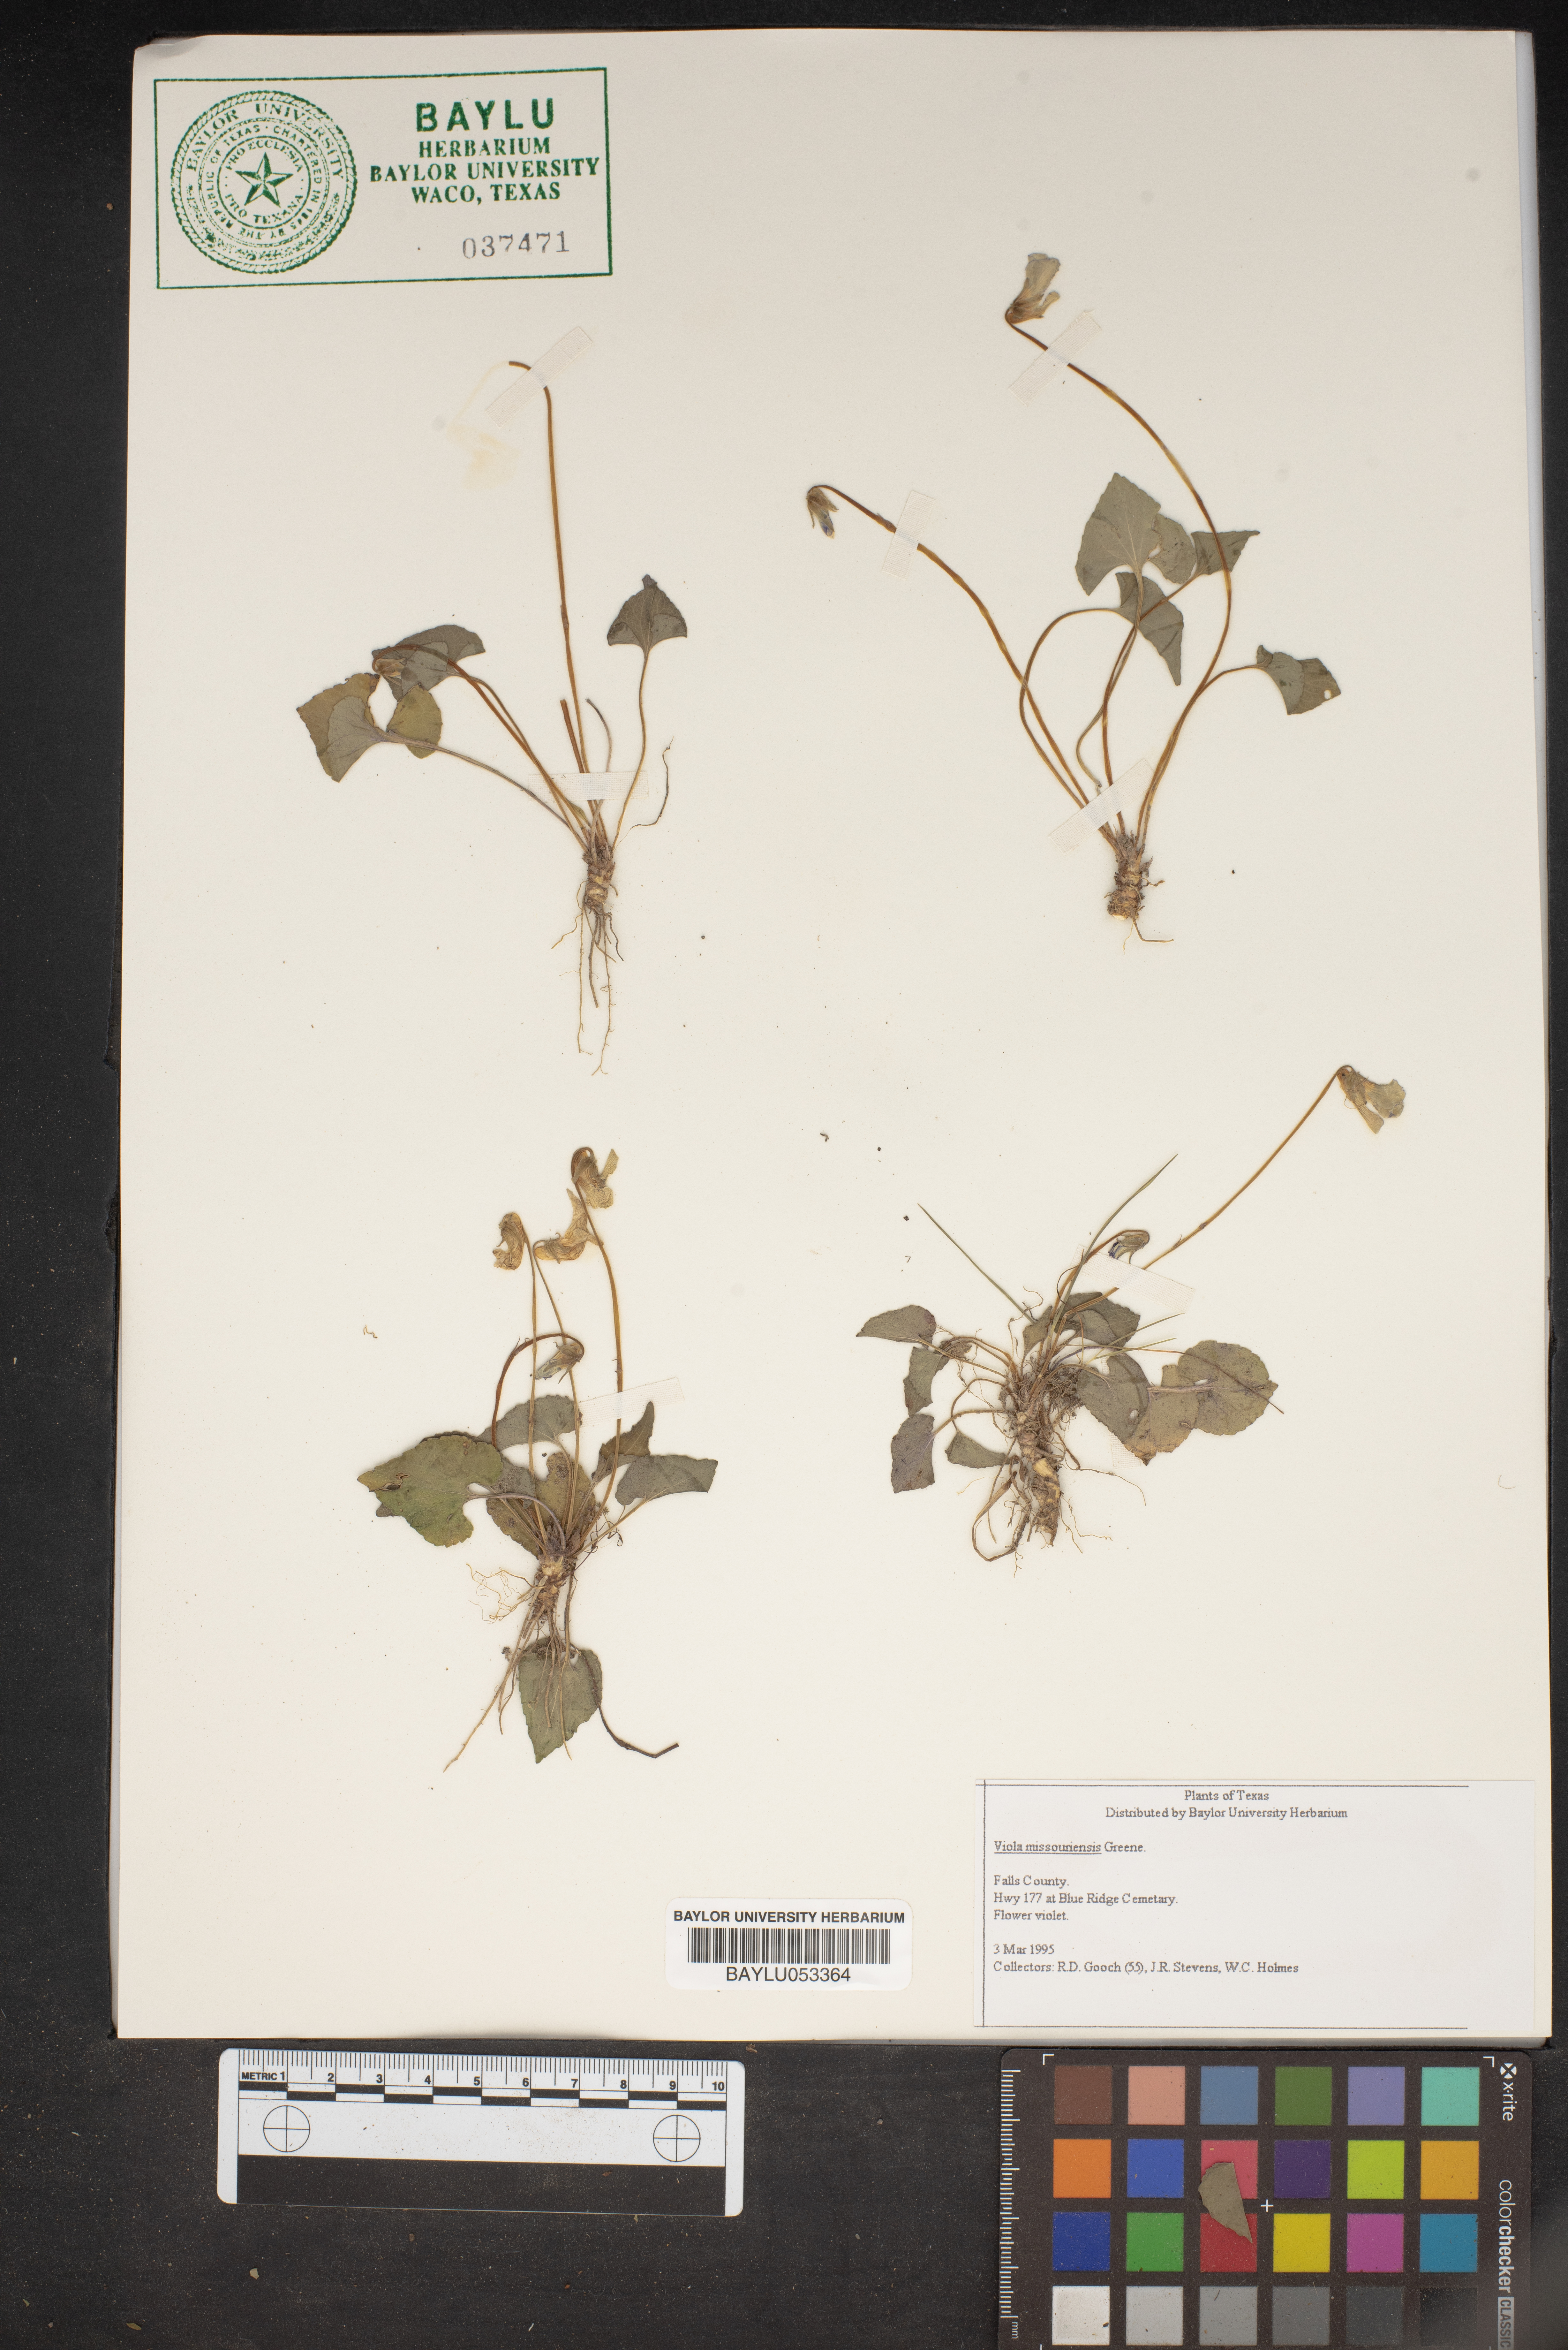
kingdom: Plantae
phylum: Tracheophyta
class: Magnoliopsida
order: Malpighiales
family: Violaceae
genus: Viola
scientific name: Viola missouriensis
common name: Missouri violet
